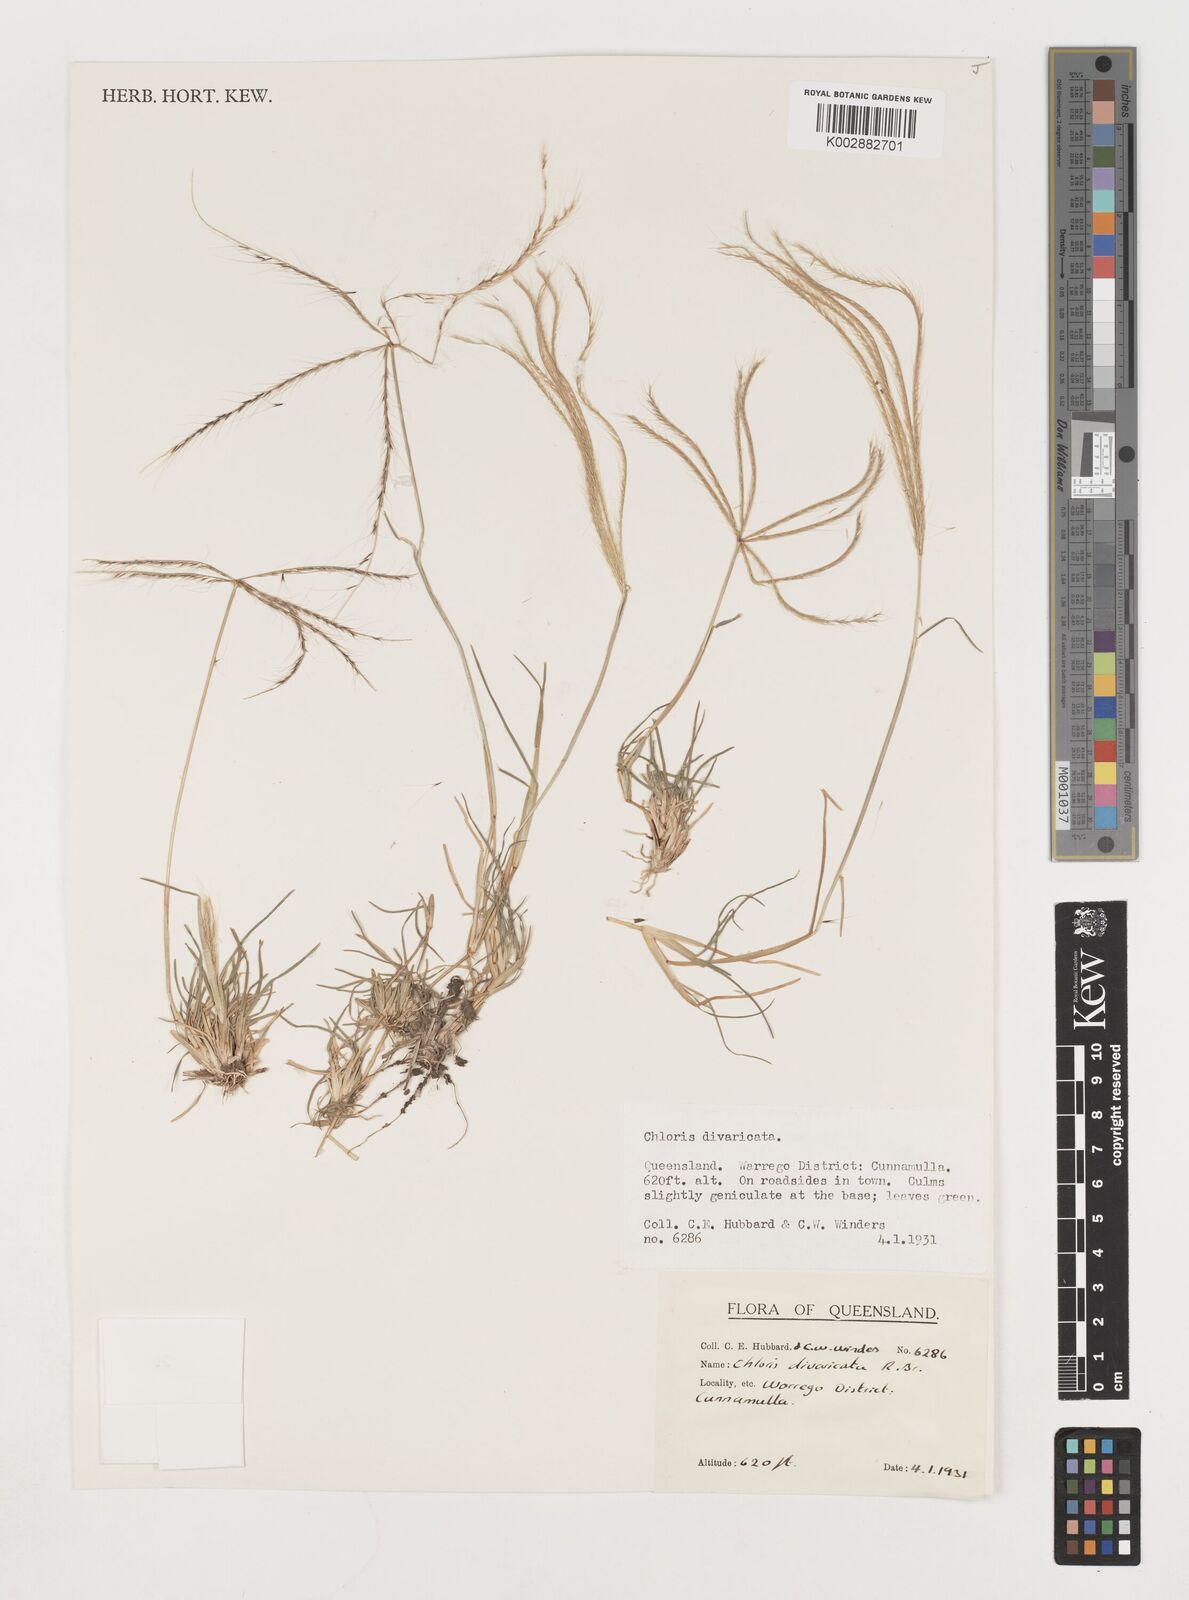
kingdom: Plantae
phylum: Tracheophyta
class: Liliopsida
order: Poales
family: Poaceae
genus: Chloris
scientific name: Chloris divaricata
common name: Spreading windmill grass
